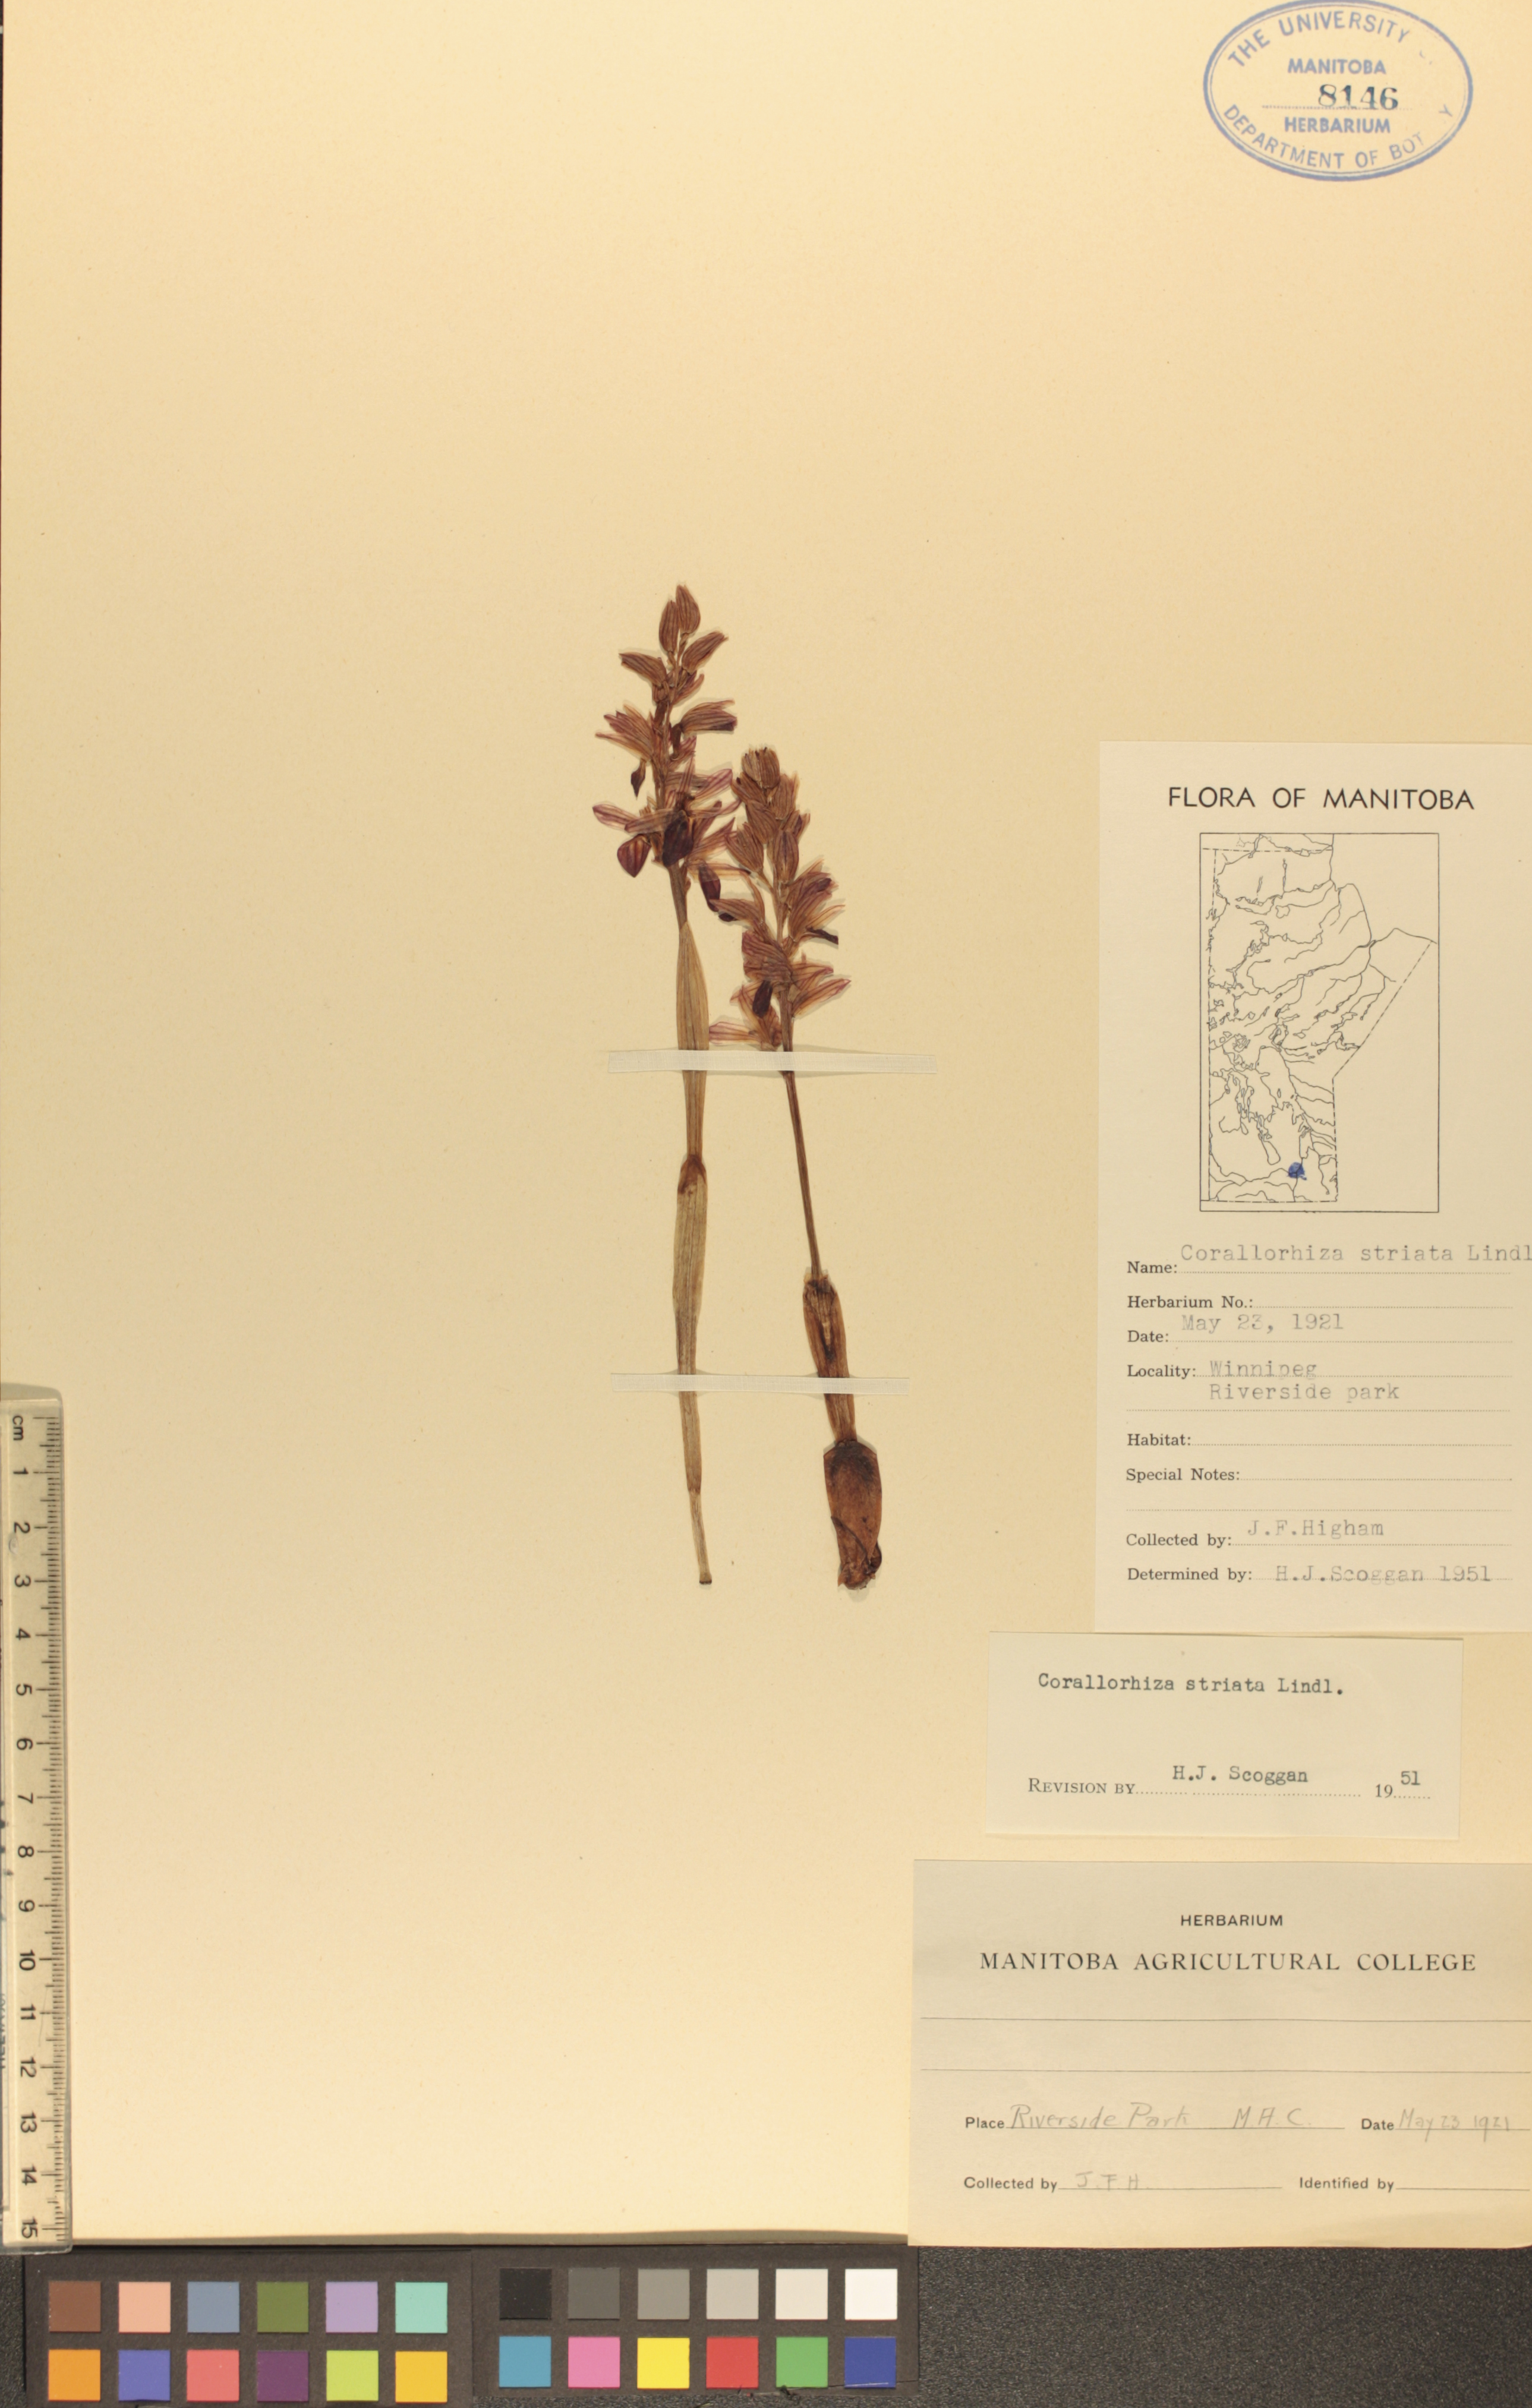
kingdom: Plantae
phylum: Tracheophyta
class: Liliopsida
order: Asparagales
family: Orchidaceae
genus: Corallorhiza
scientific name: Corallorhiza striata
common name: Hooded coralroot
